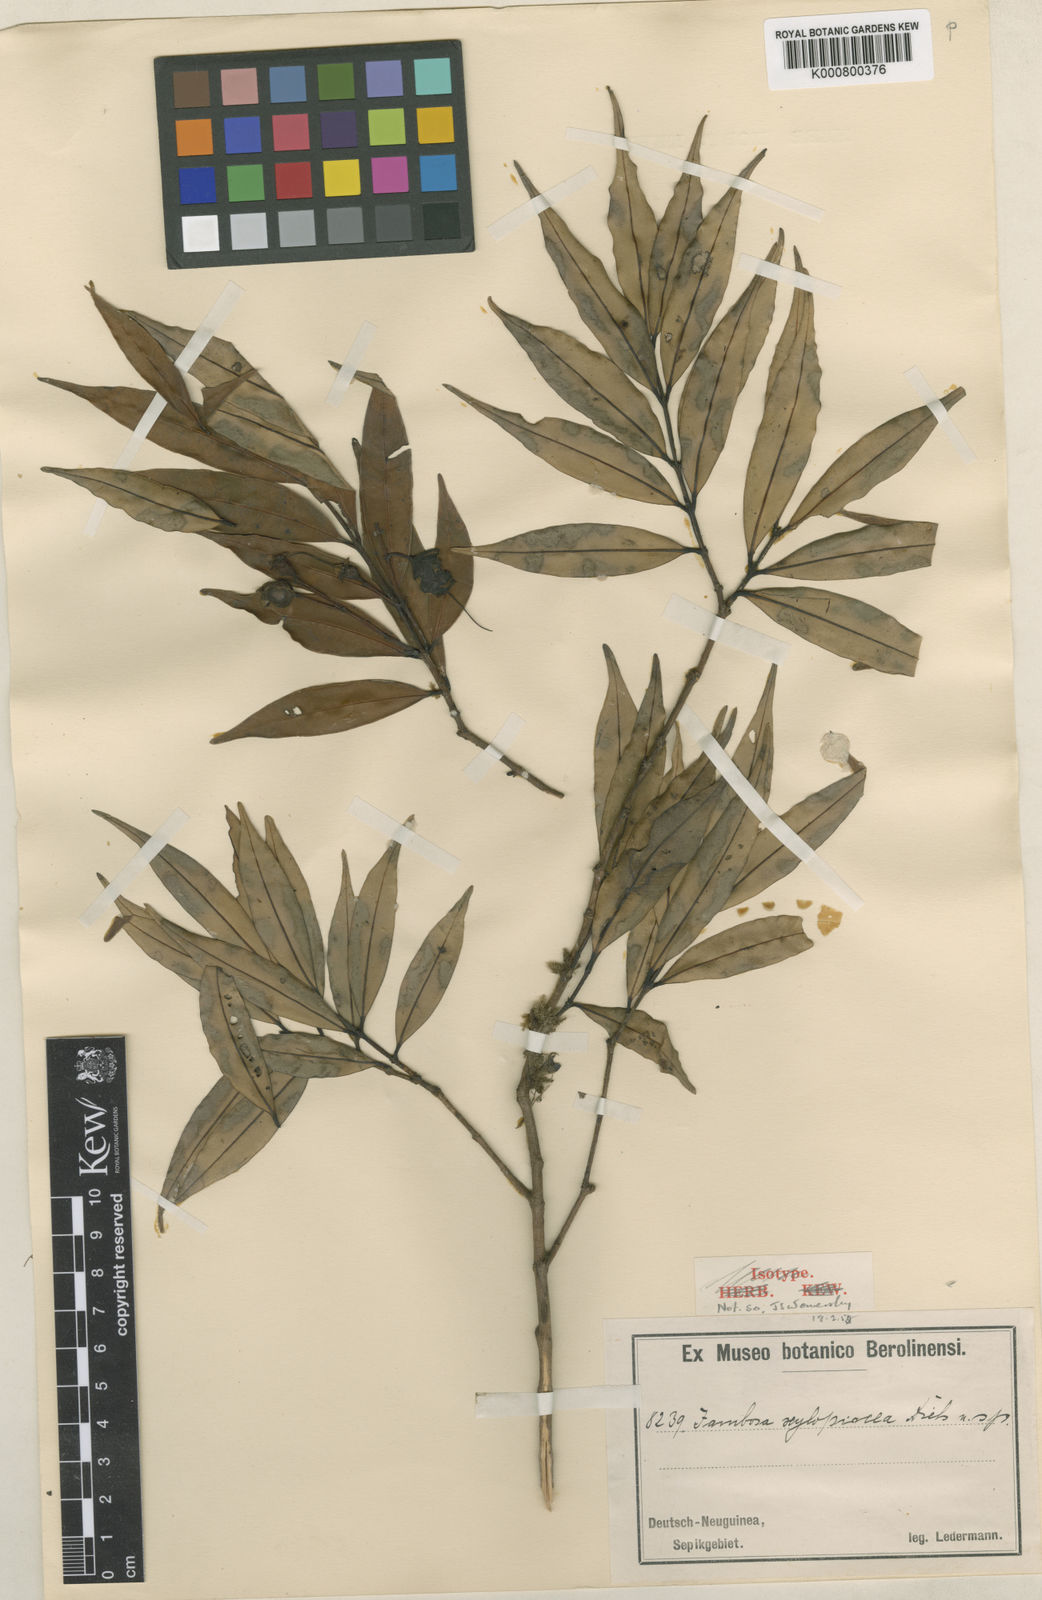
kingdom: Plantae
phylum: Tracheophyta
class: Magnoliopsida
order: Myrtales
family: Myrtaceae
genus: Syzygium
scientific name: Syzygium xylopiaceum
